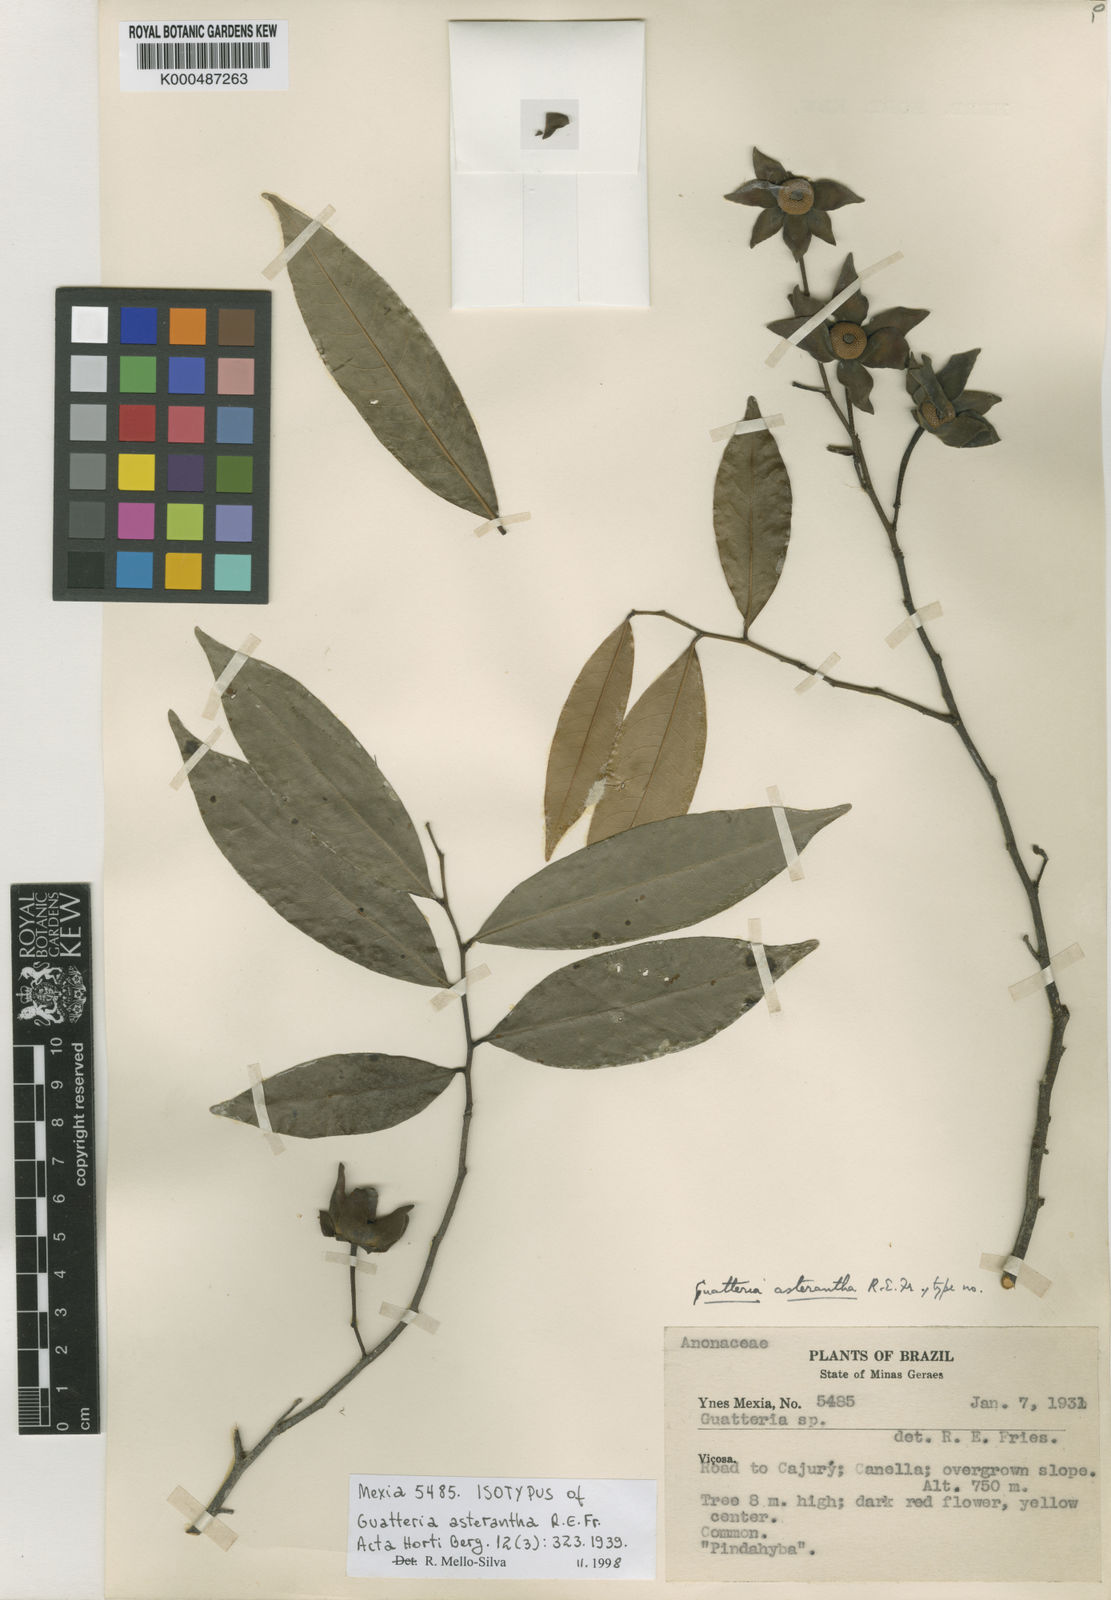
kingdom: Plantae
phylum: Tracheophyta
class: Magnoliopsida
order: Magnoliales
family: Annonaceae
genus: Guatteria
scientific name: Guatteria australis
